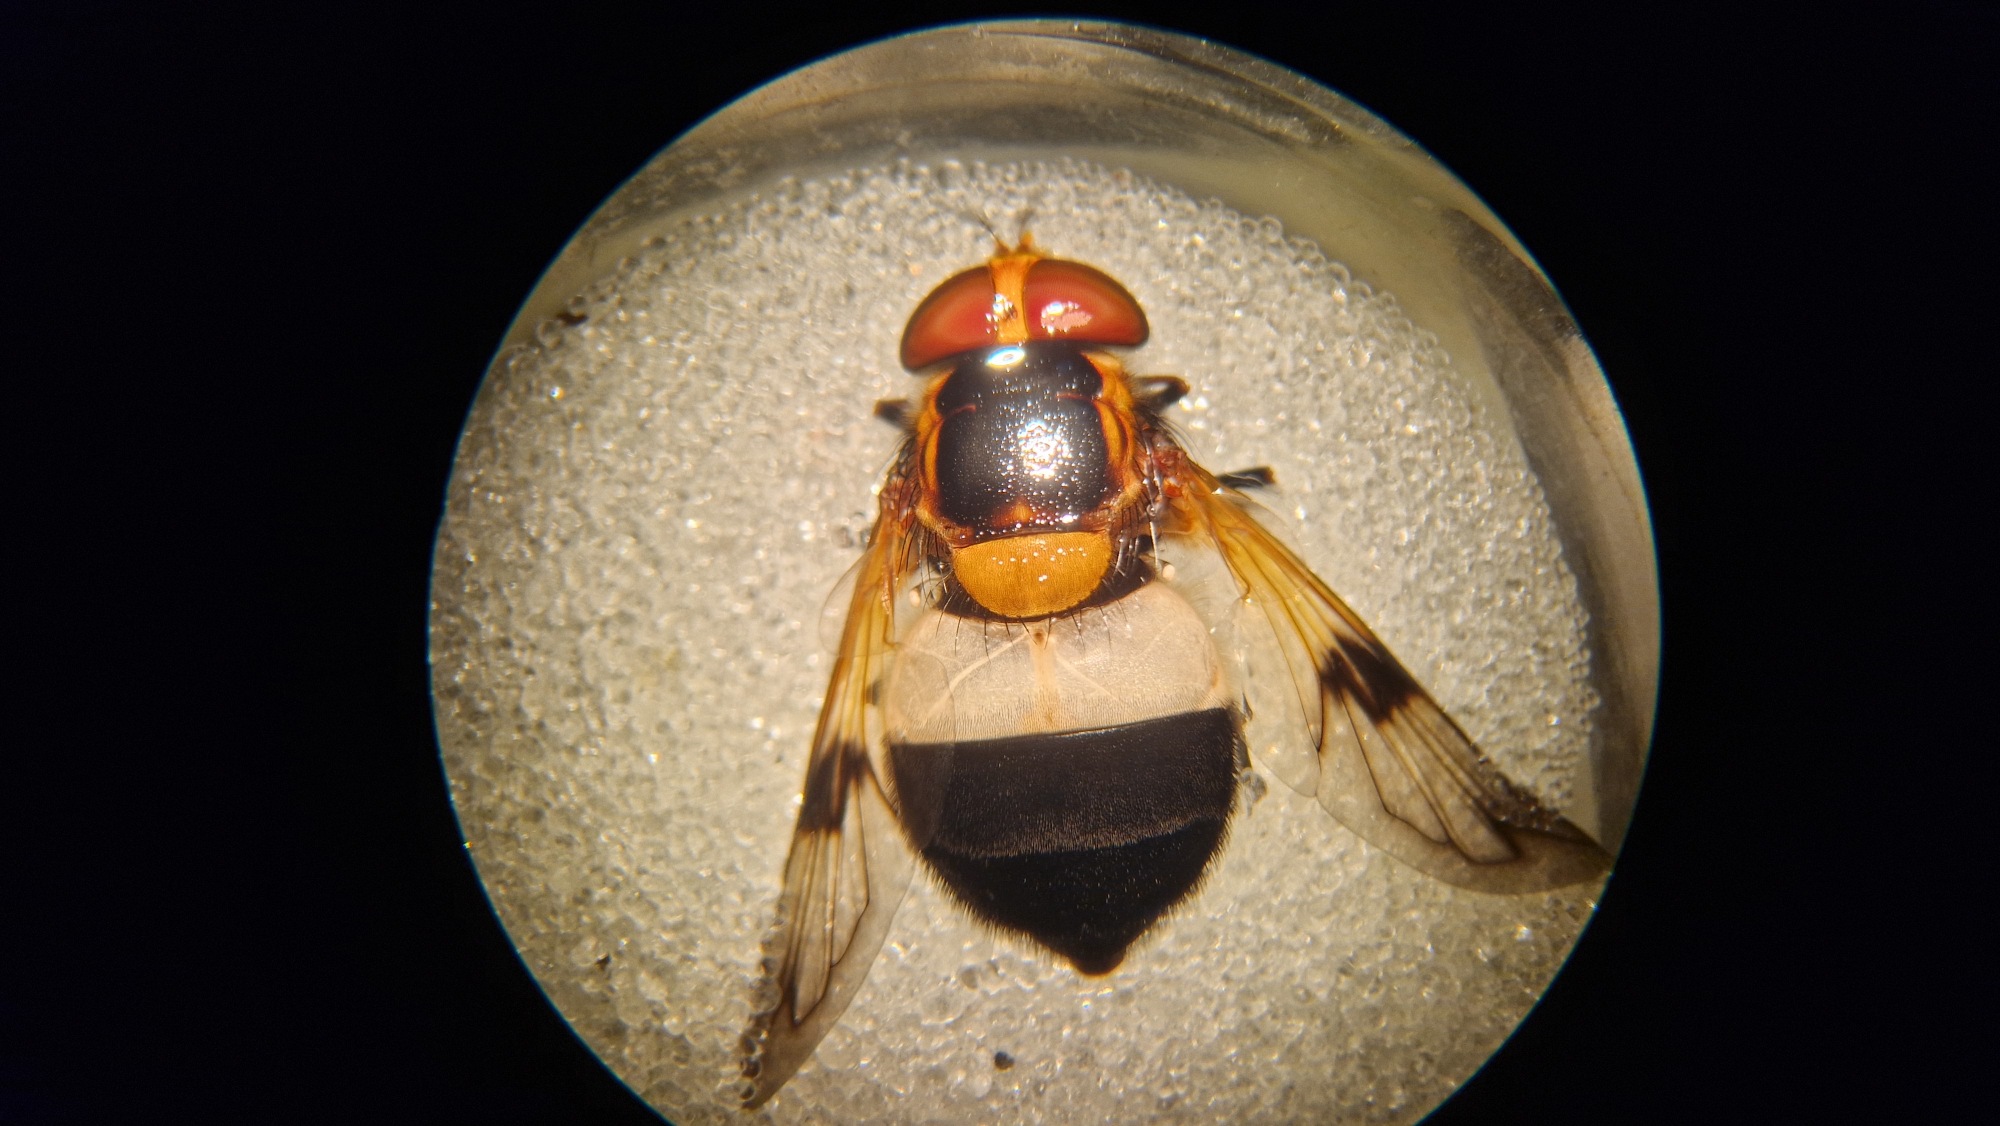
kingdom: Animalia
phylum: Arthropoda
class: Insecta
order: Diptera
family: Syrphidae
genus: Volucella
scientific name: Volucella pellucens
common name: Hvidbåndet humlesvirreflue
